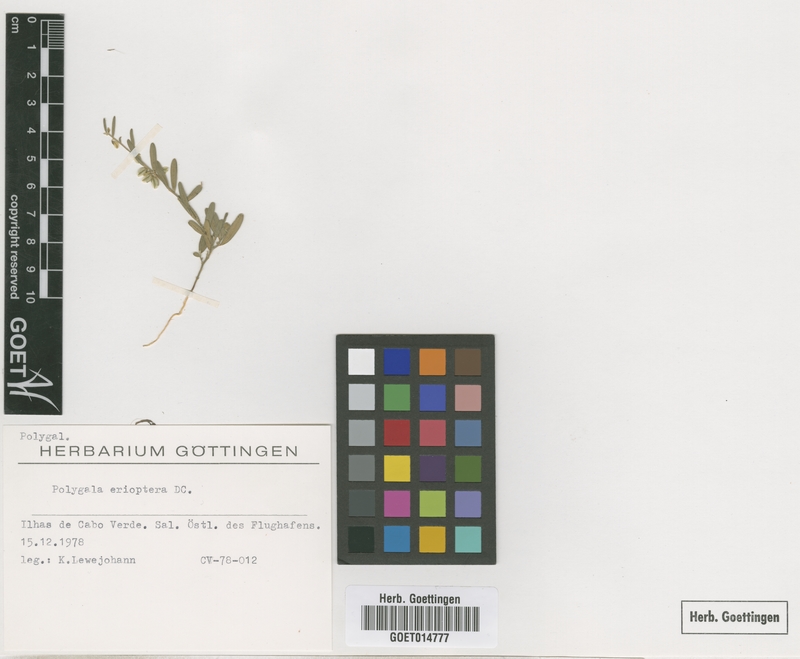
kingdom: Plantae
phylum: Tracheophyta
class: Magnoliopsida
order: Fabales
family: Polygalaceae
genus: Polygala
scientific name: Polygala erioptera
